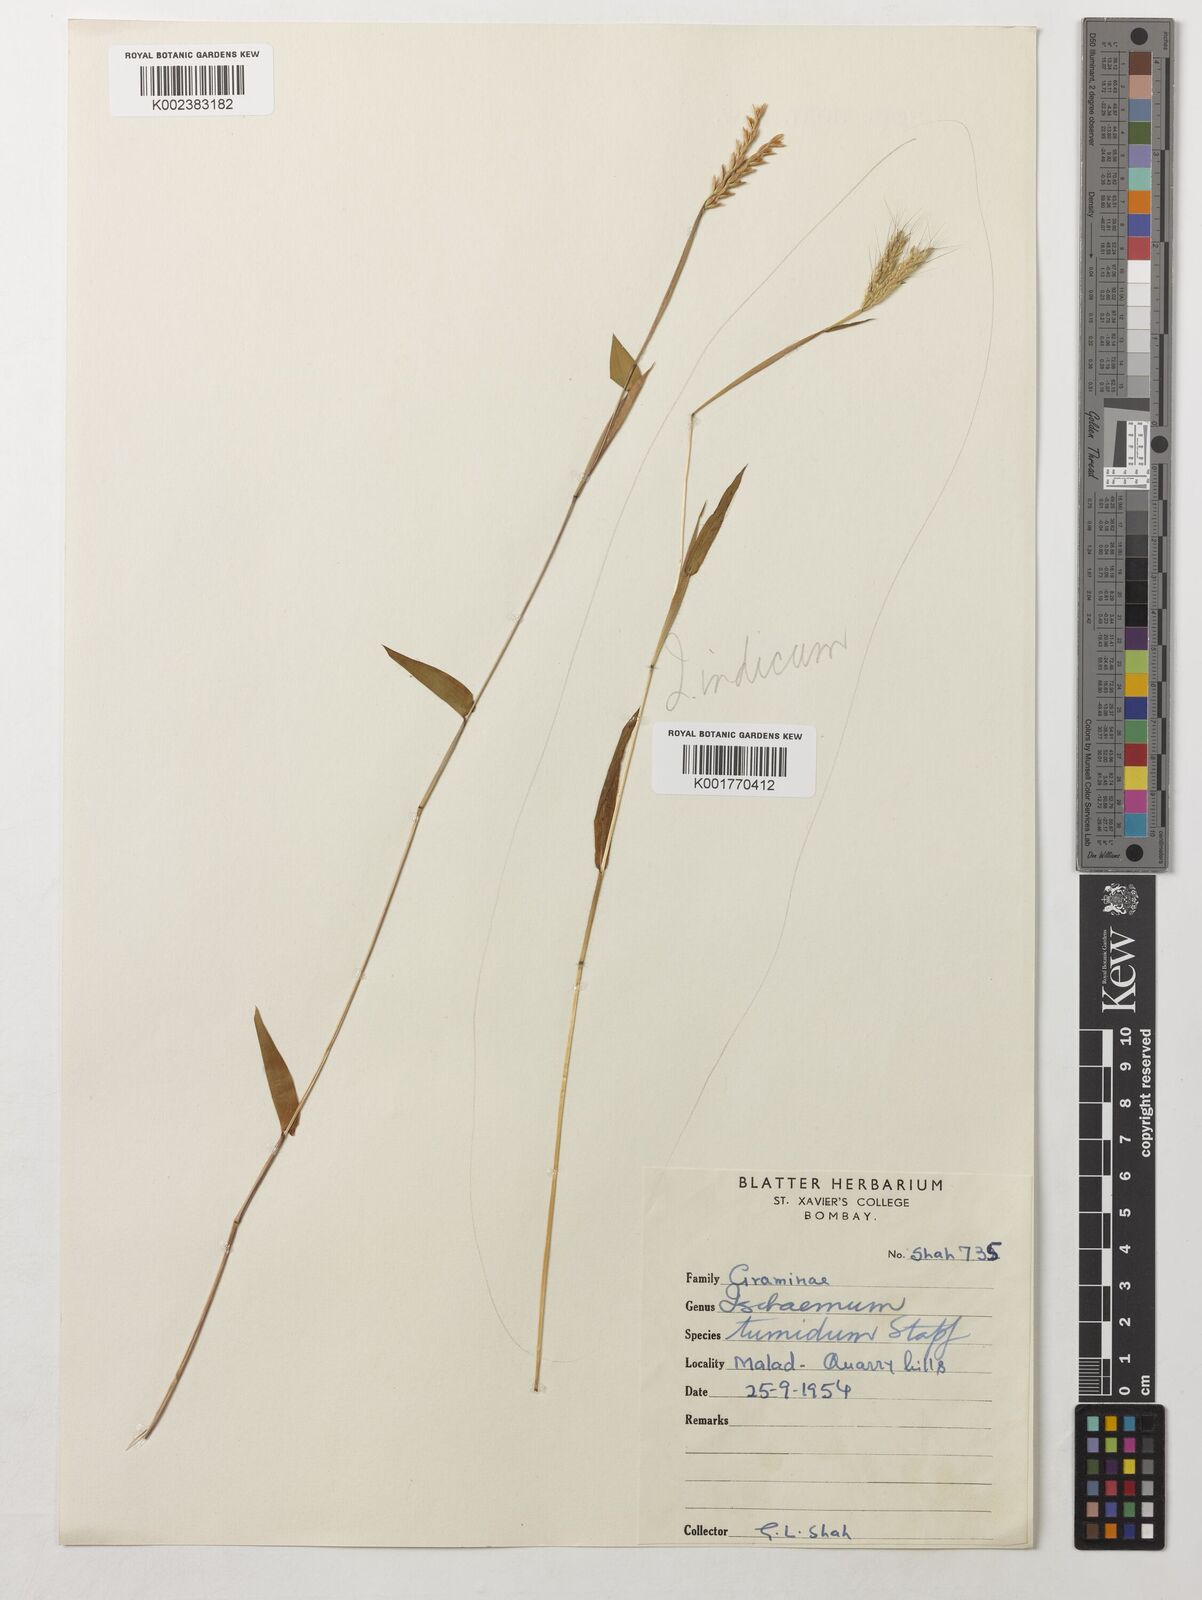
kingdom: Plantae
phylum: Tracheophyta
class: Liliopsida
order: Poales
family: Poaceae
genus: Polytrias
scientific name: Polytrias indica
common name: Indian murainagrass
